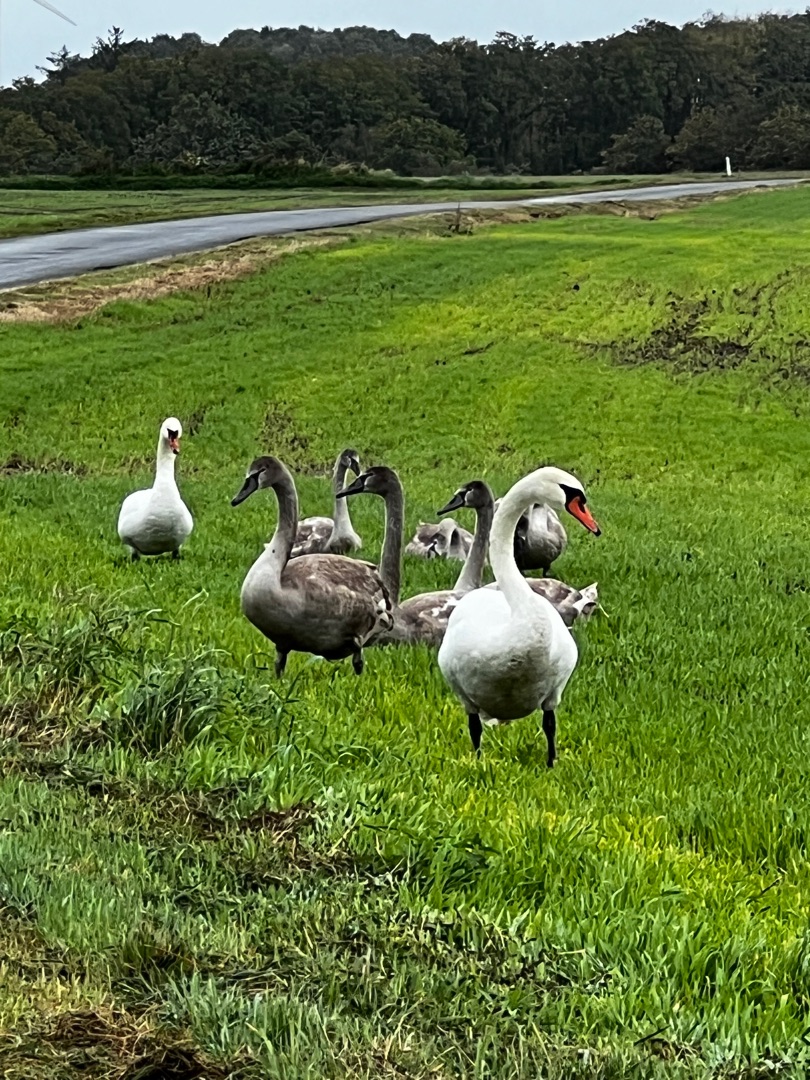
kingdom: Animalia
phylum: Chordata
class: Aves
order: Anseriformes
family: Anatidae
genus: Cygnus
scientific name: Cygnus olor
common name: Knopsvane
